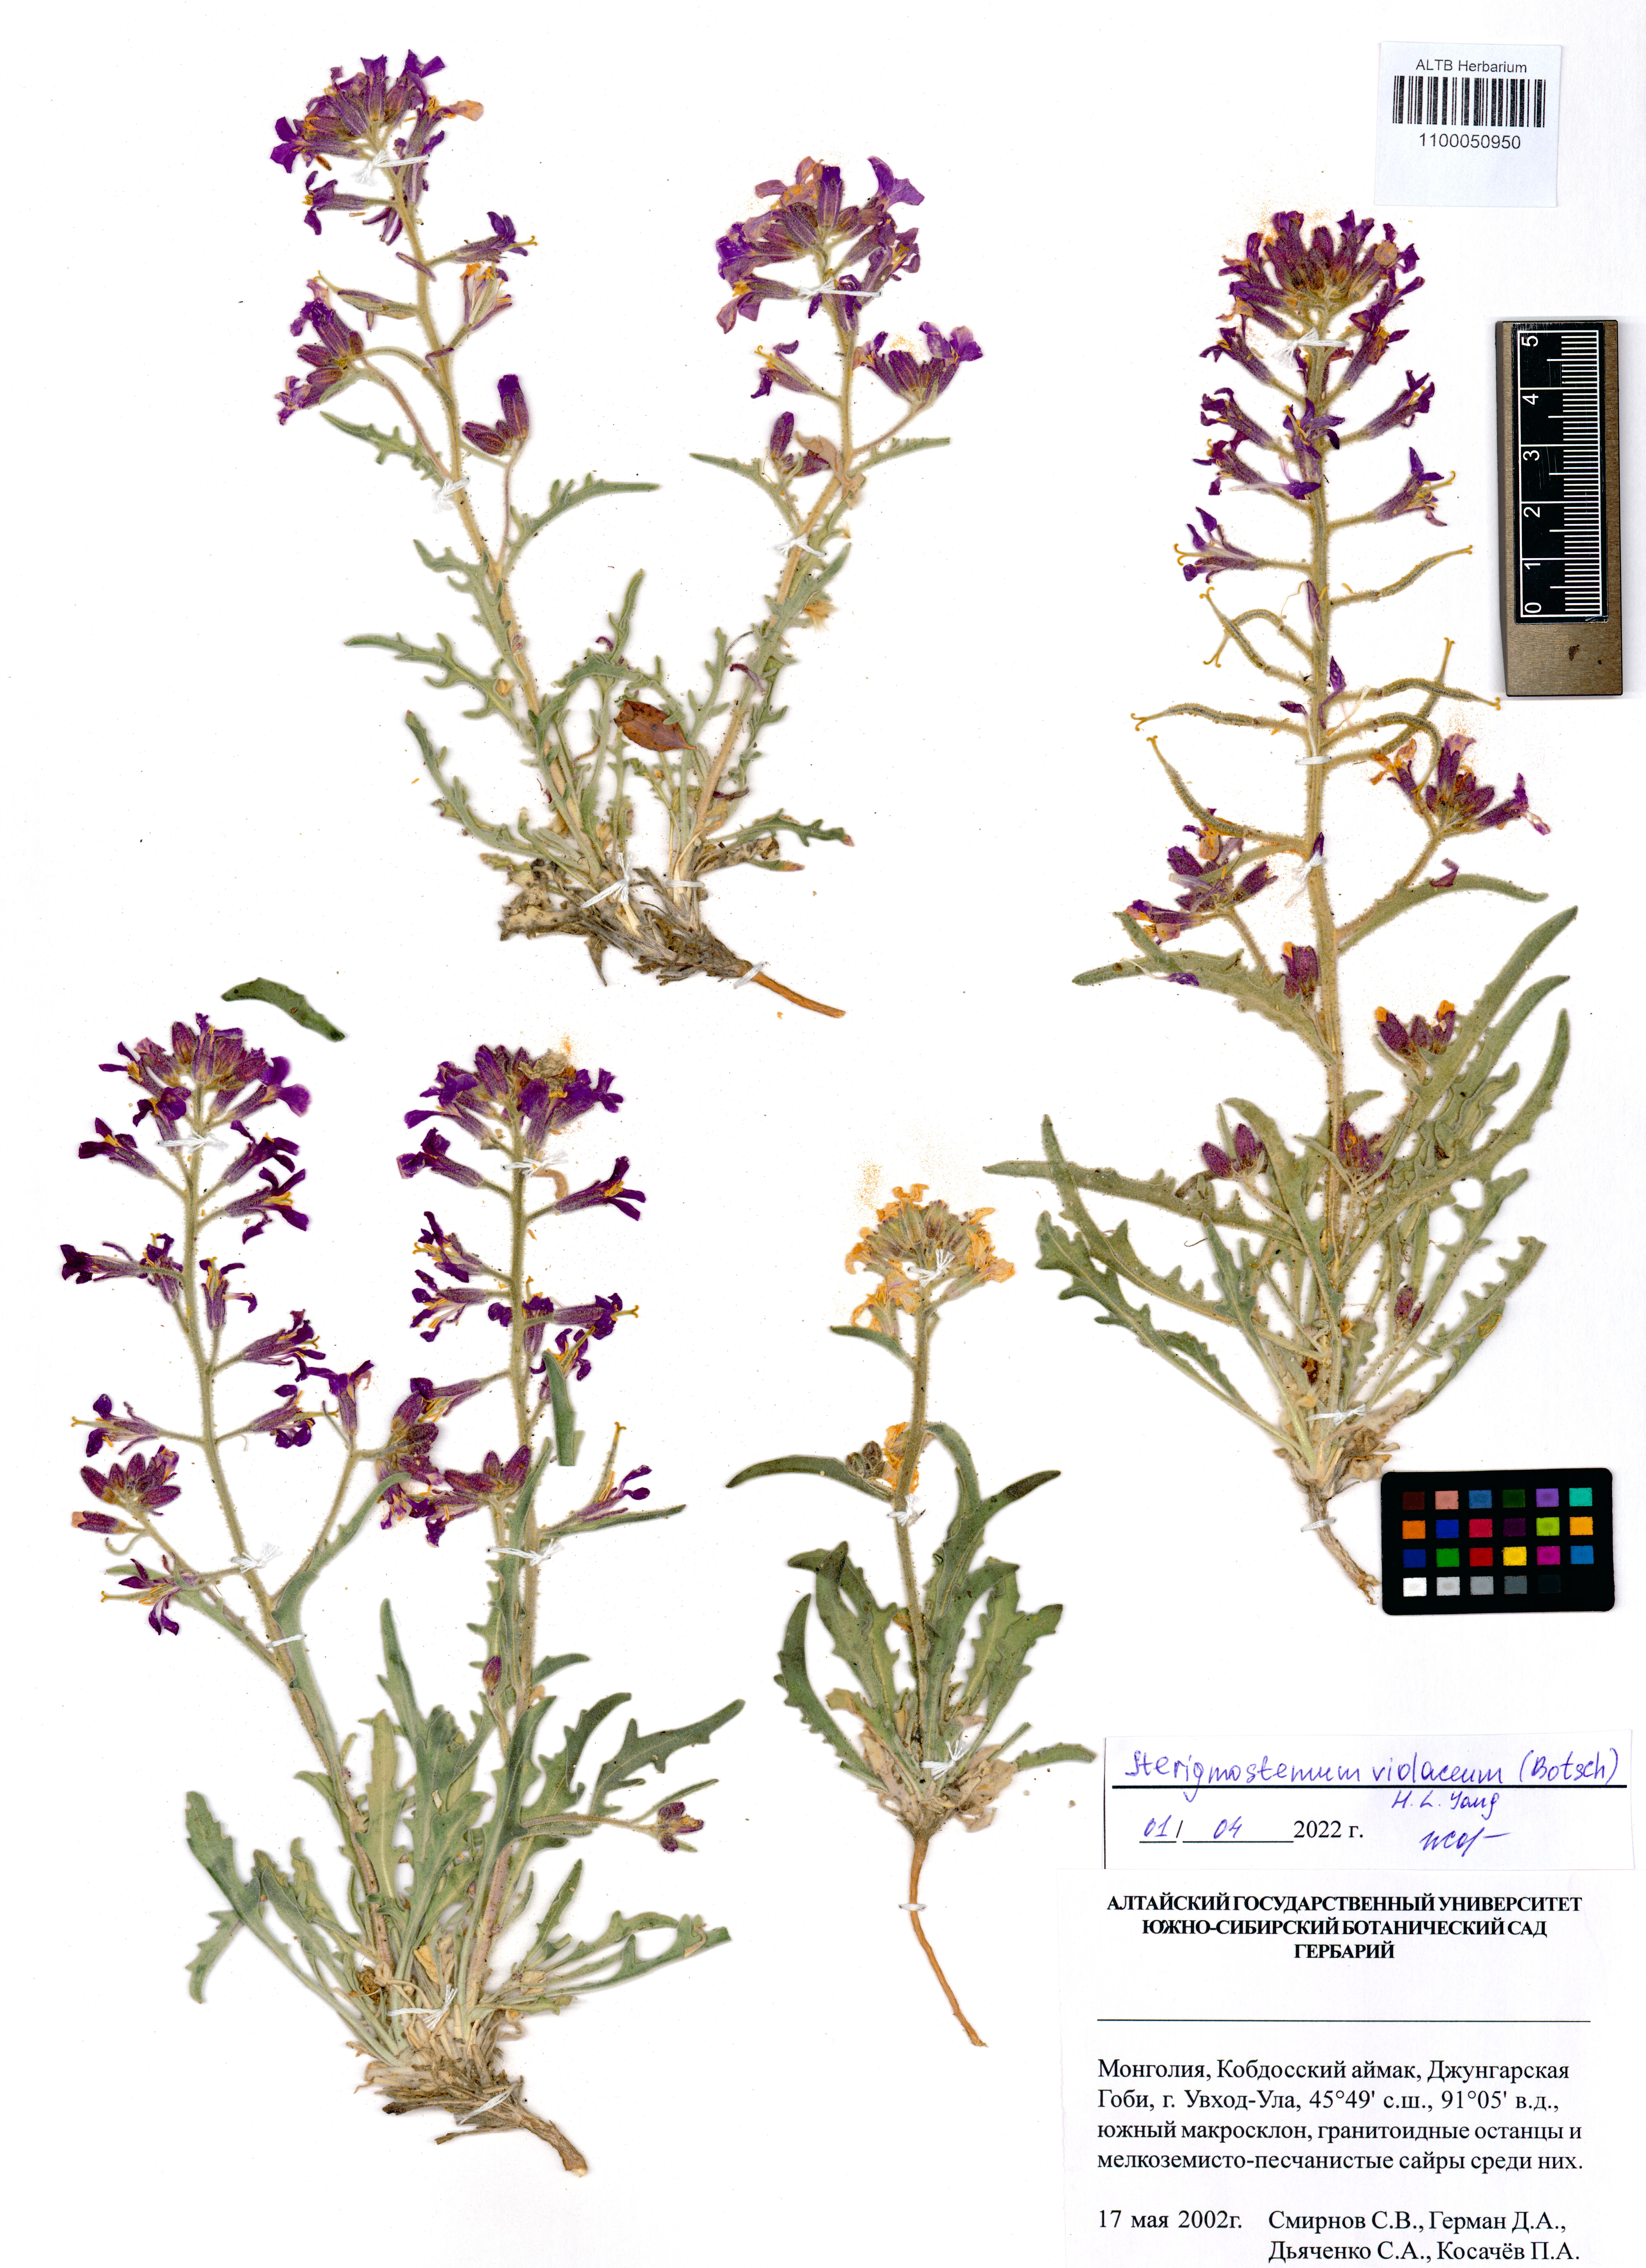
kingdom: Plantae
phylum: Tracheophyta
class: Magnoliopsida
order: Brassicales
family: Brassicaceae
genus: Sterigmostemum
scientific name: Sterigmostemum violaceum
